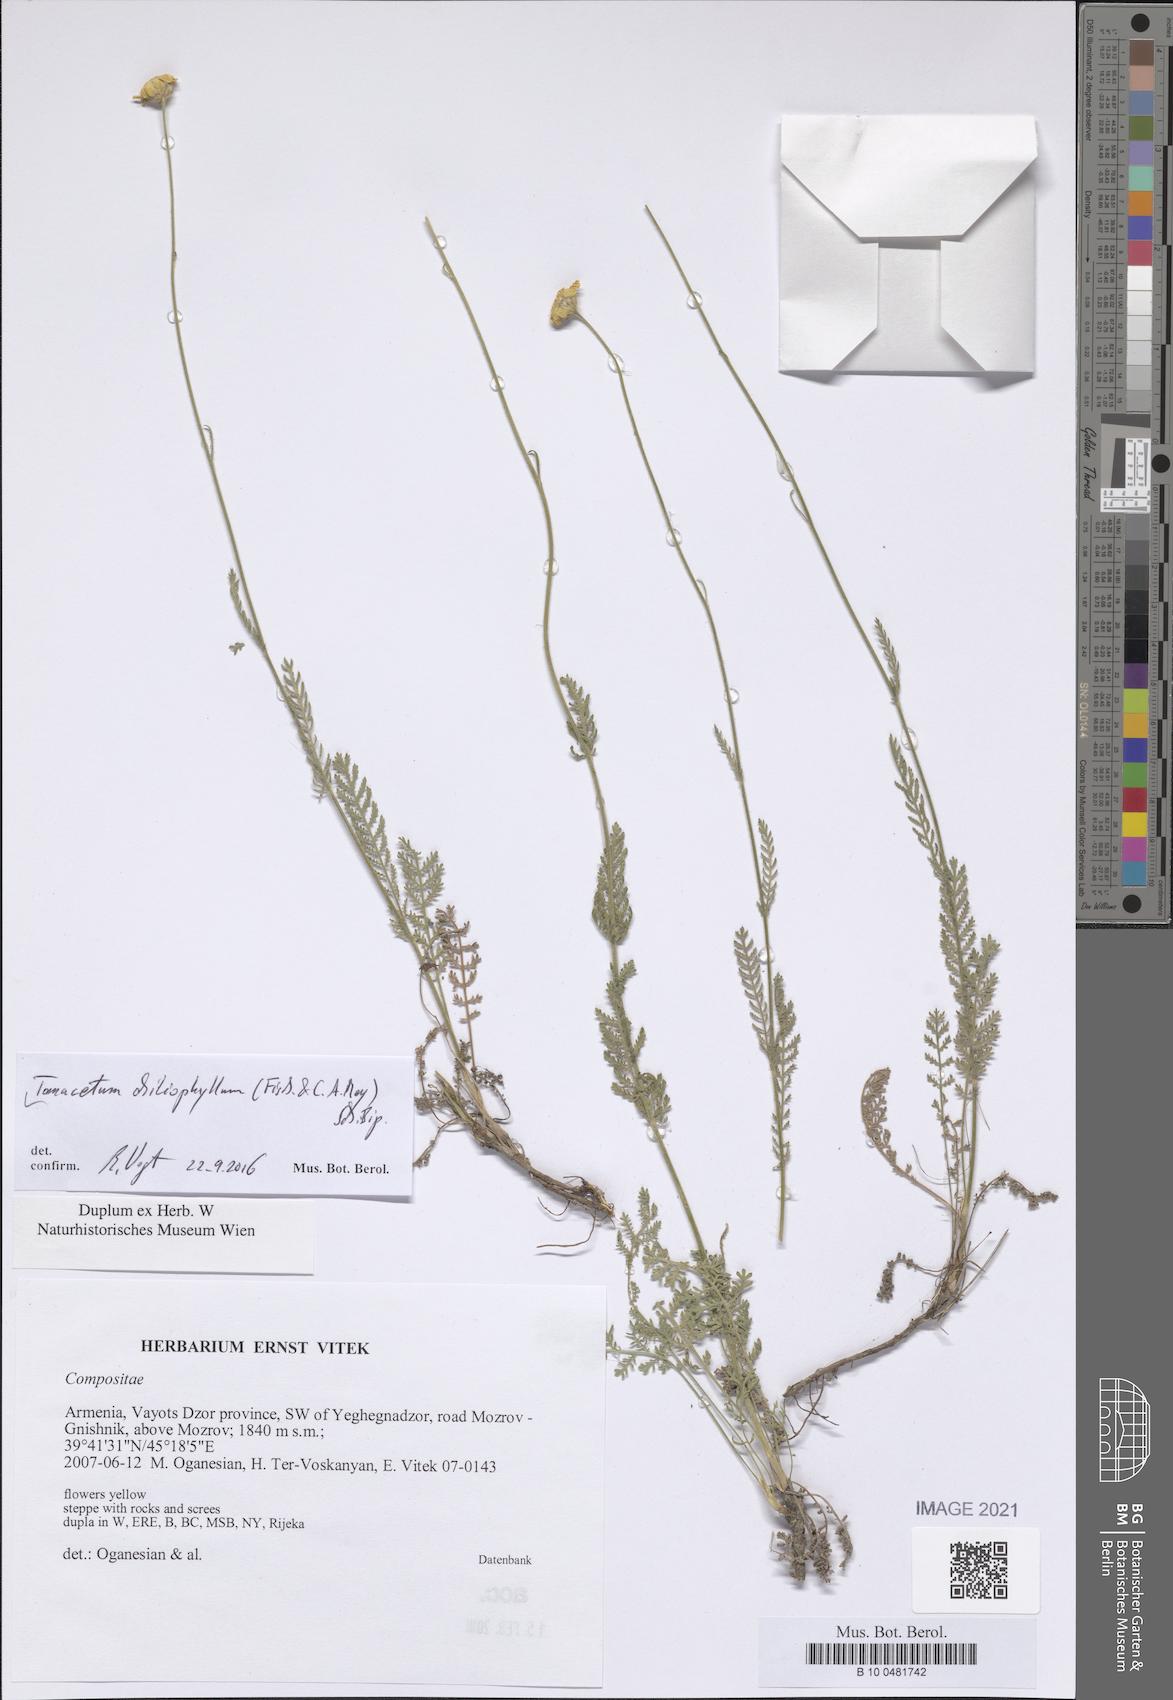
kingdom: Plantae
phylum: Tracheophyta
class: Magnoliopsida
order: Asterales
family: Asteraceae
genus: Tanacetum
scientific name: Tanacetum aureum
